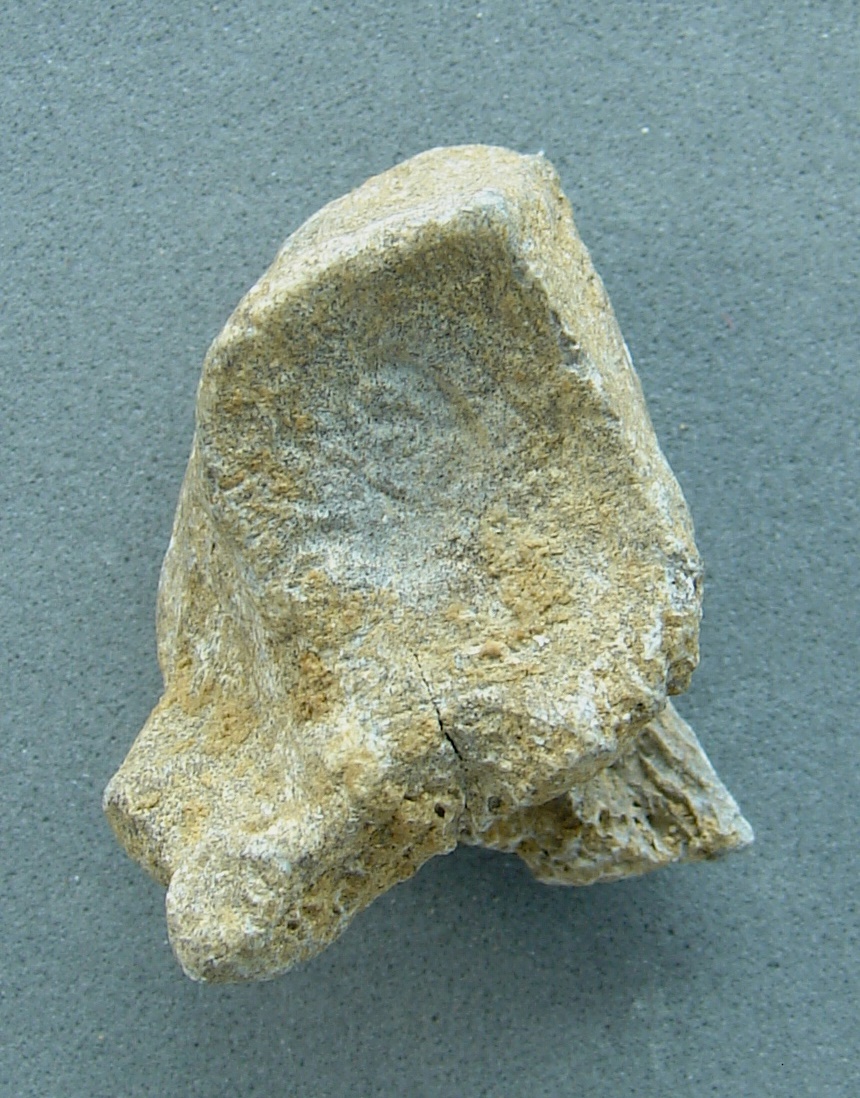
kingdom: Animalia
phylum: Chordata
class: Mammalia
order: Artiodactyla
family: Cervidae
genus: Cervus
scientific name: Cervus elaphus
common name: Red deer
